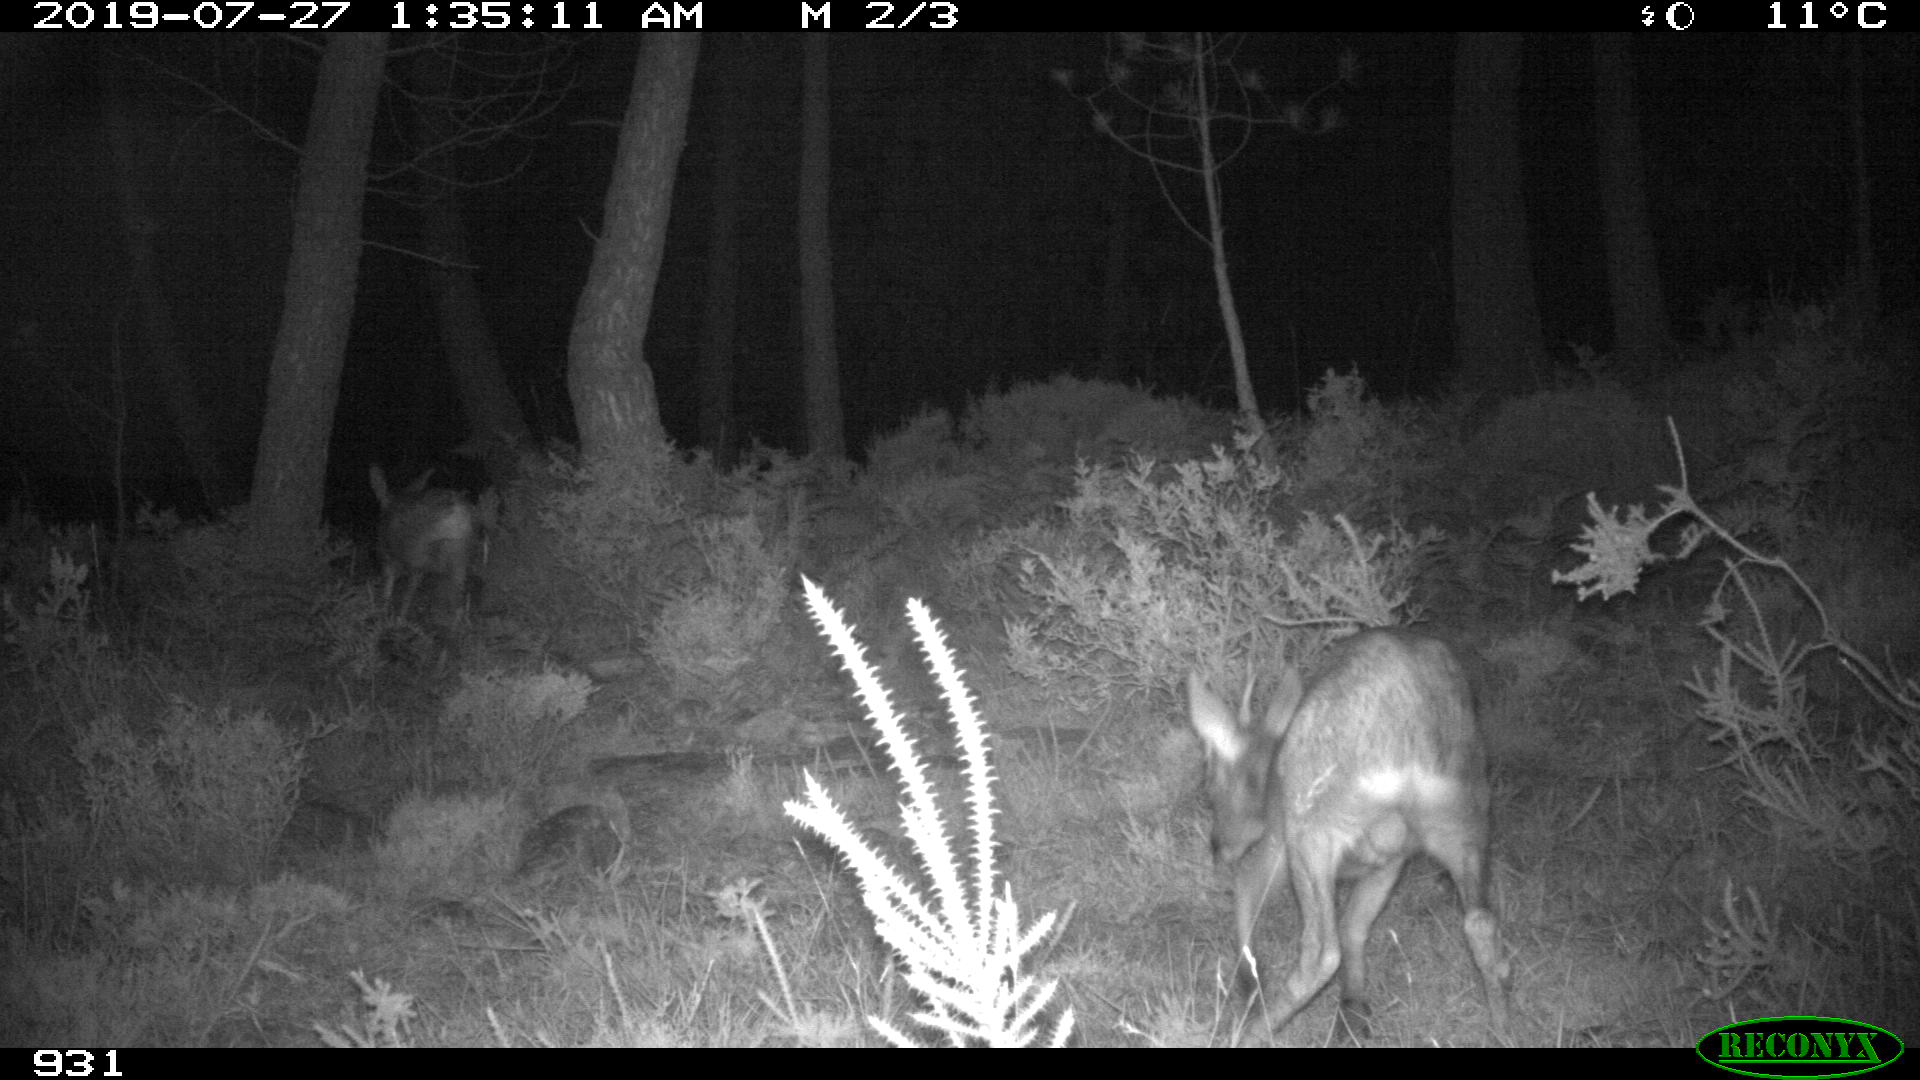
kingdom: Animalia
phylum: Chordata
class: Mammalia
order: Artiodactyla
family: Cervidae
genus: Capreolus
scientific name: Capreolus capreolus
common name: Western roe deer
